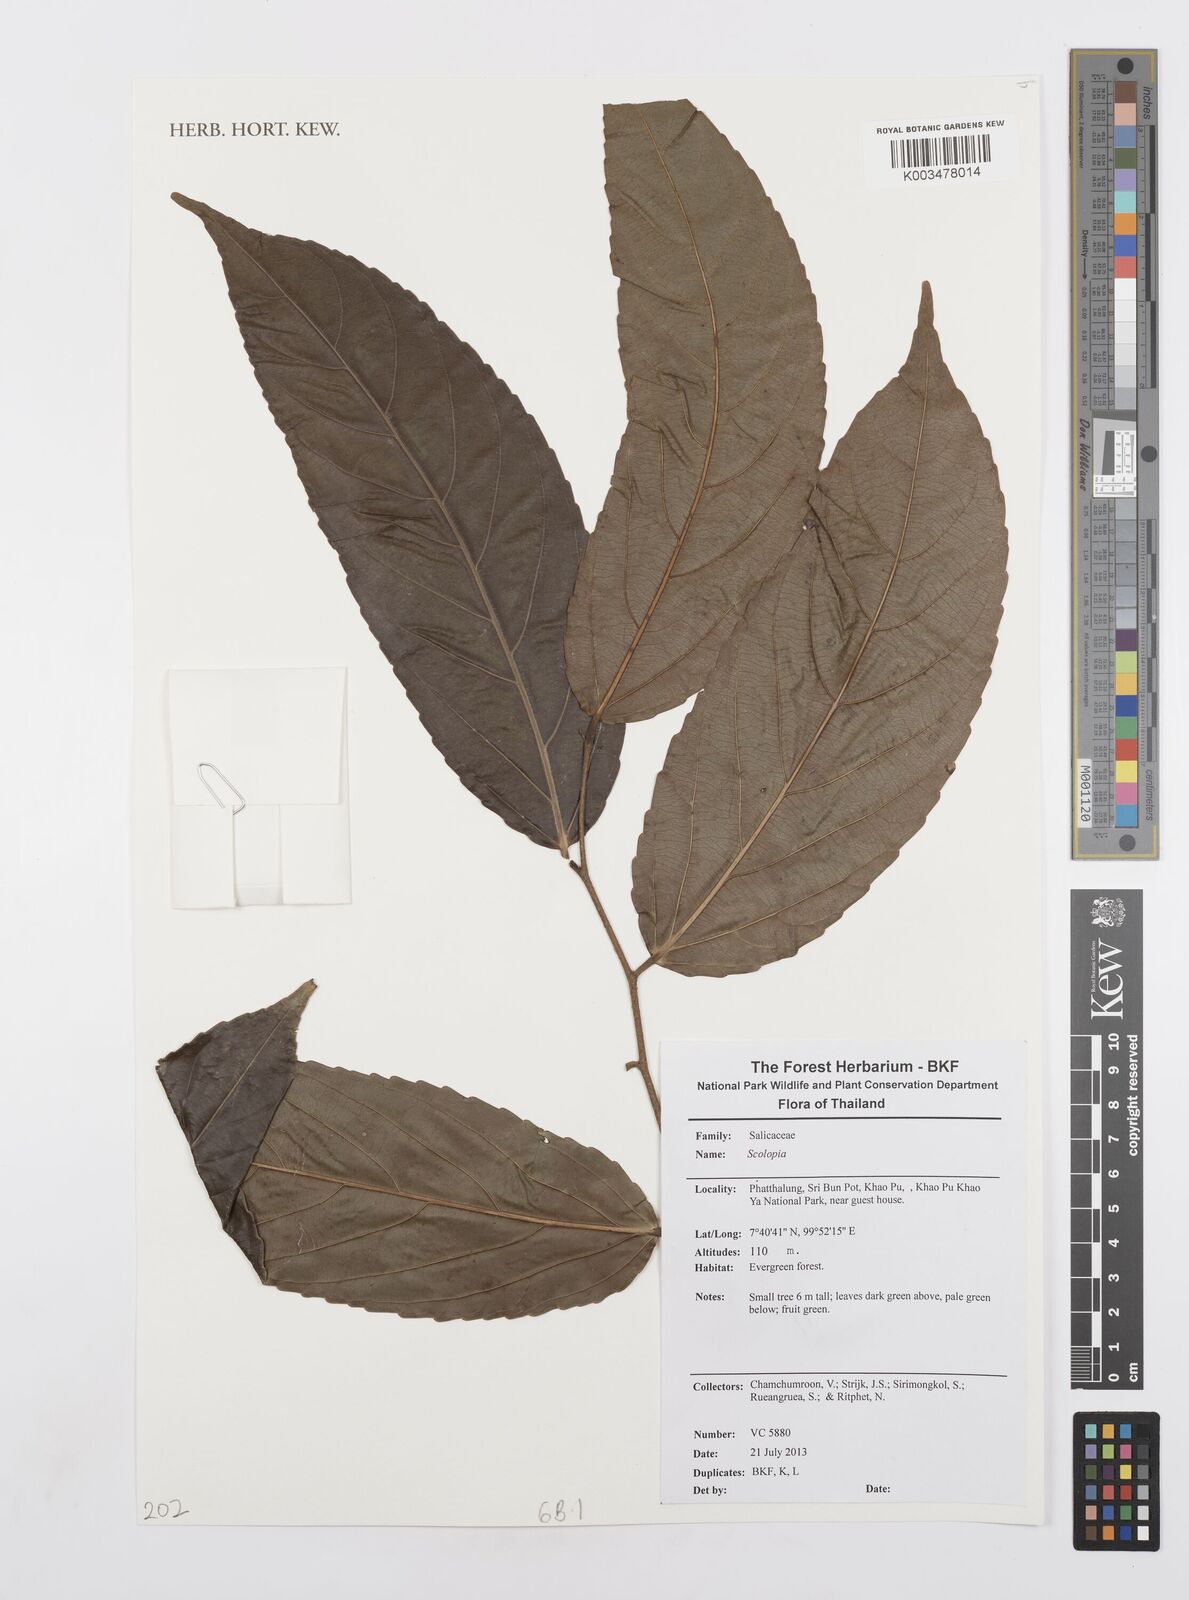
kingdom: Plantae
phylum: Tracheophyta
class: Magnoliopsida
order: Malpighiales
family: Salicaceae
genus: Scolopia
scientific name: Scolopia
